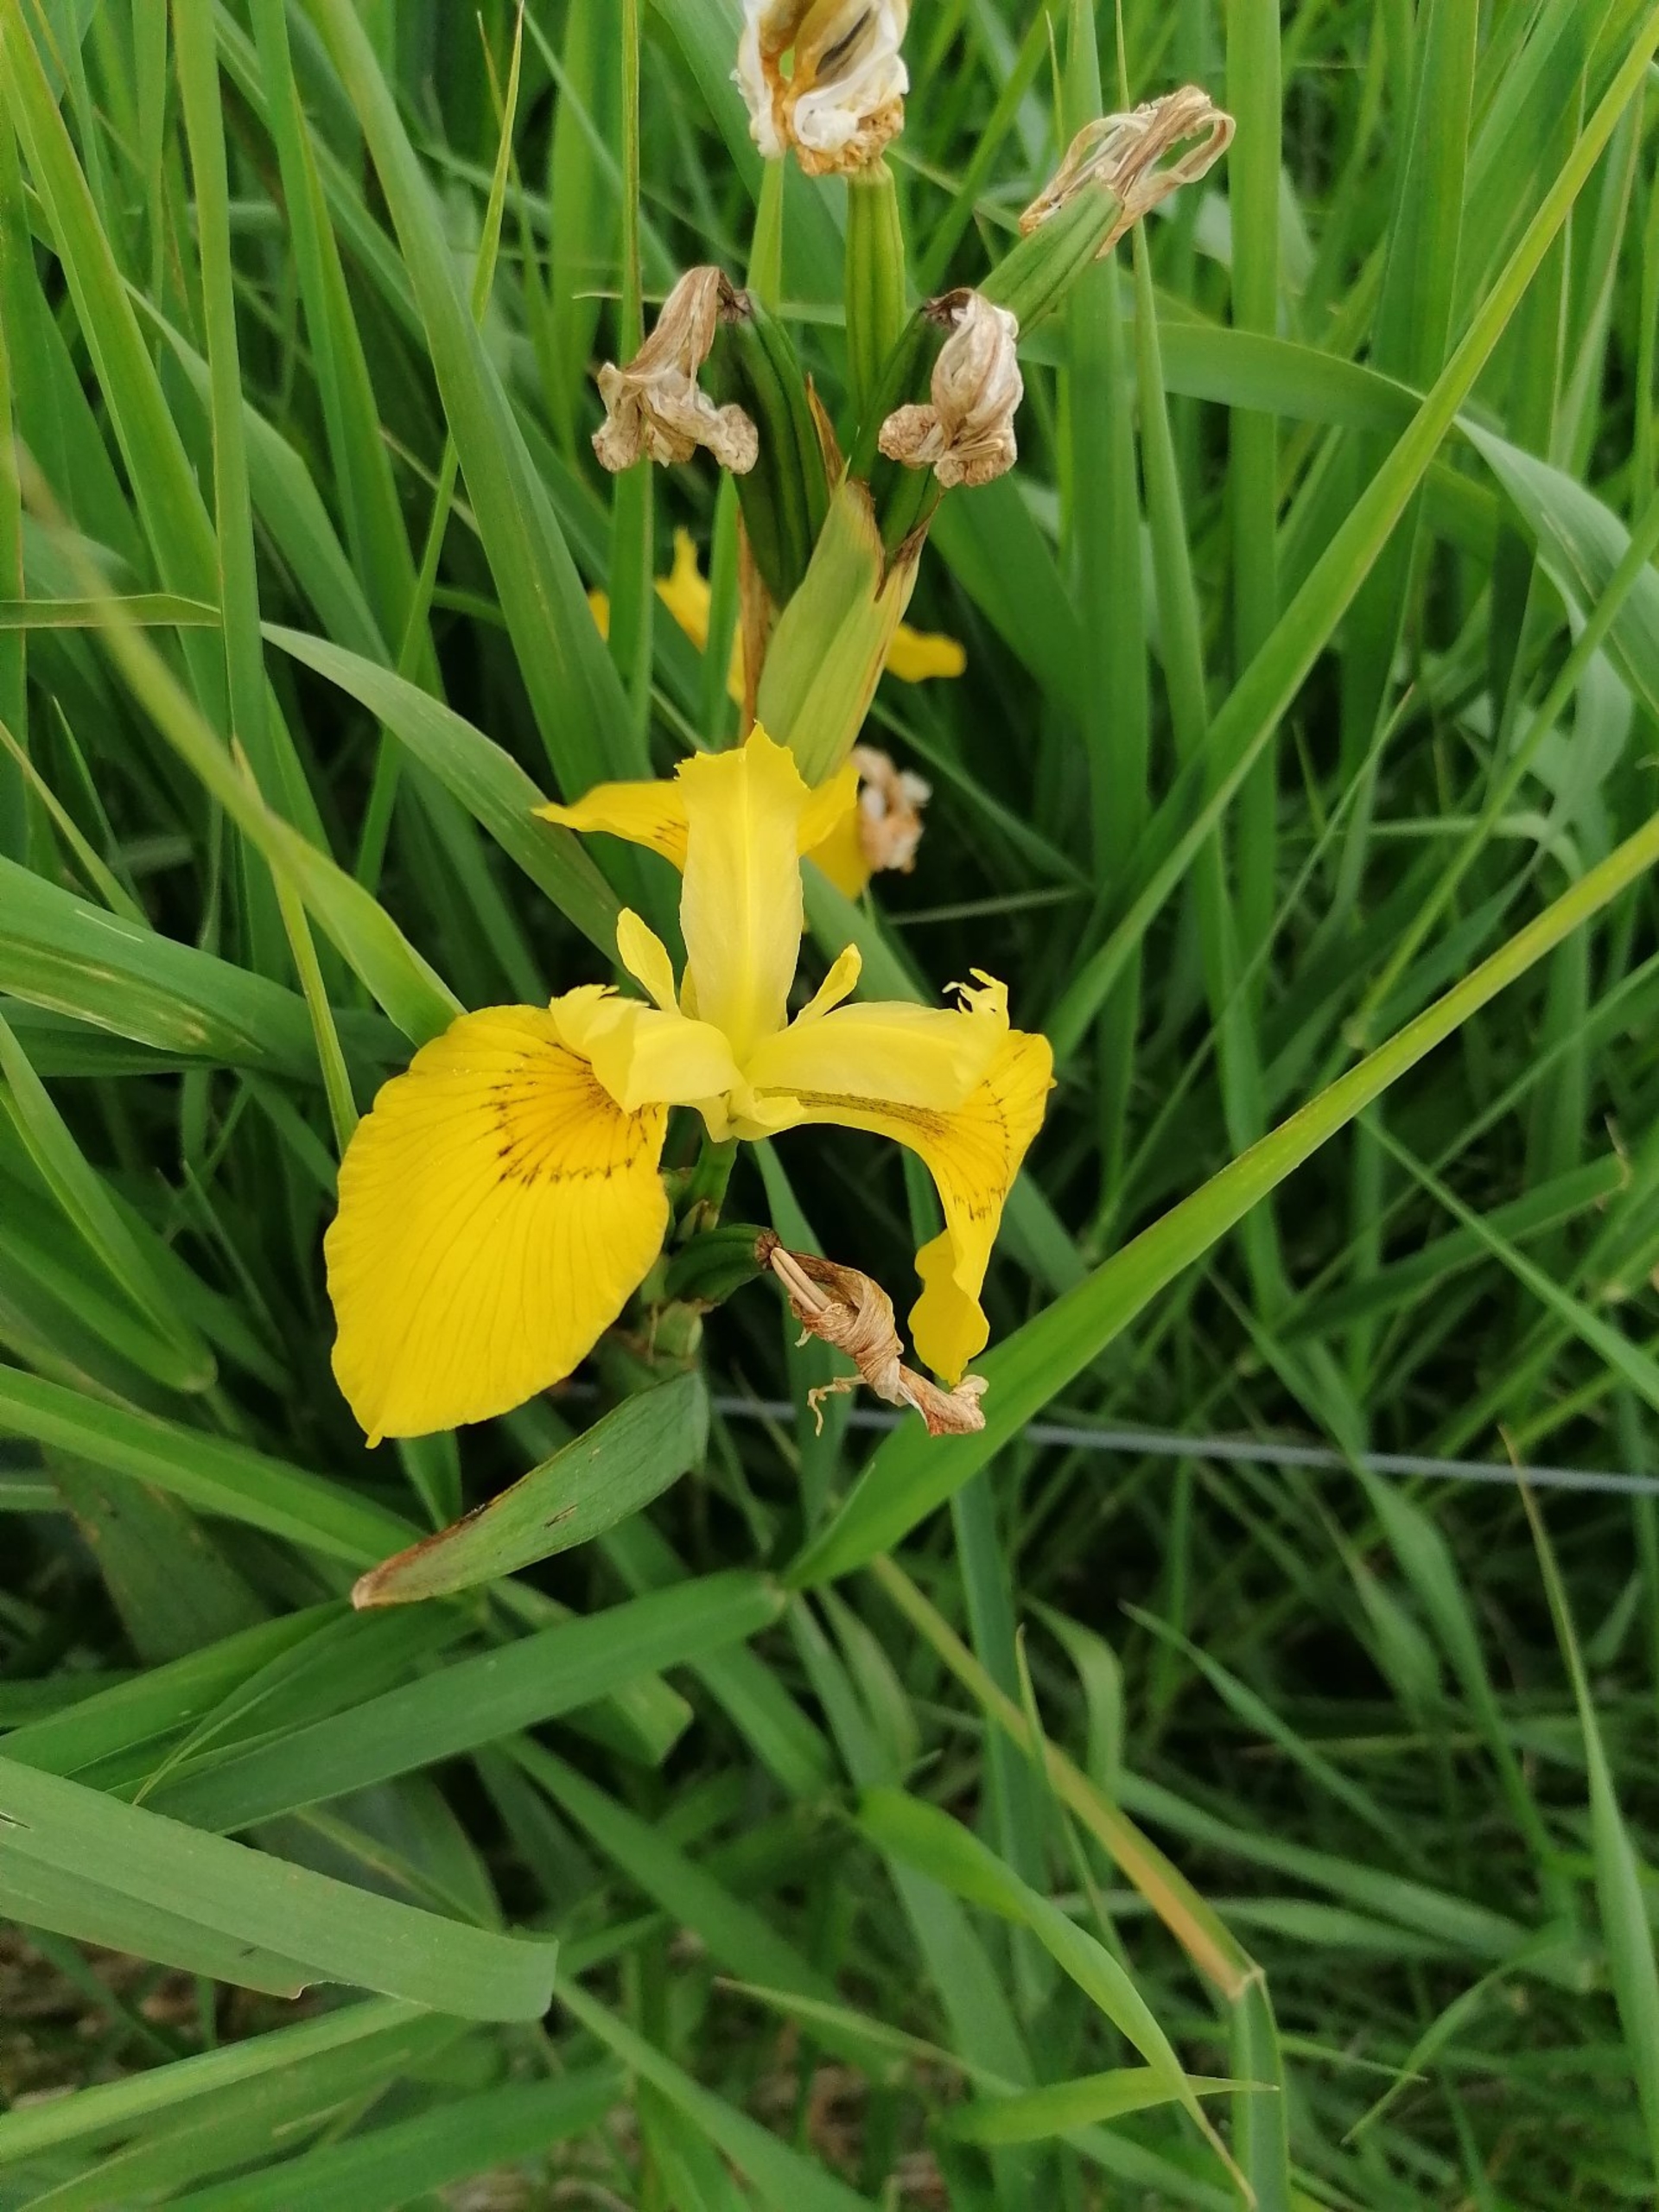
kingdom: Plantae
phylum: Tracheophyta
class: Liliopsida
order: Asparagales
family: Iridaceae
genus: Iris
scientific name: Iris pseudacorus
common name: Gul iris
